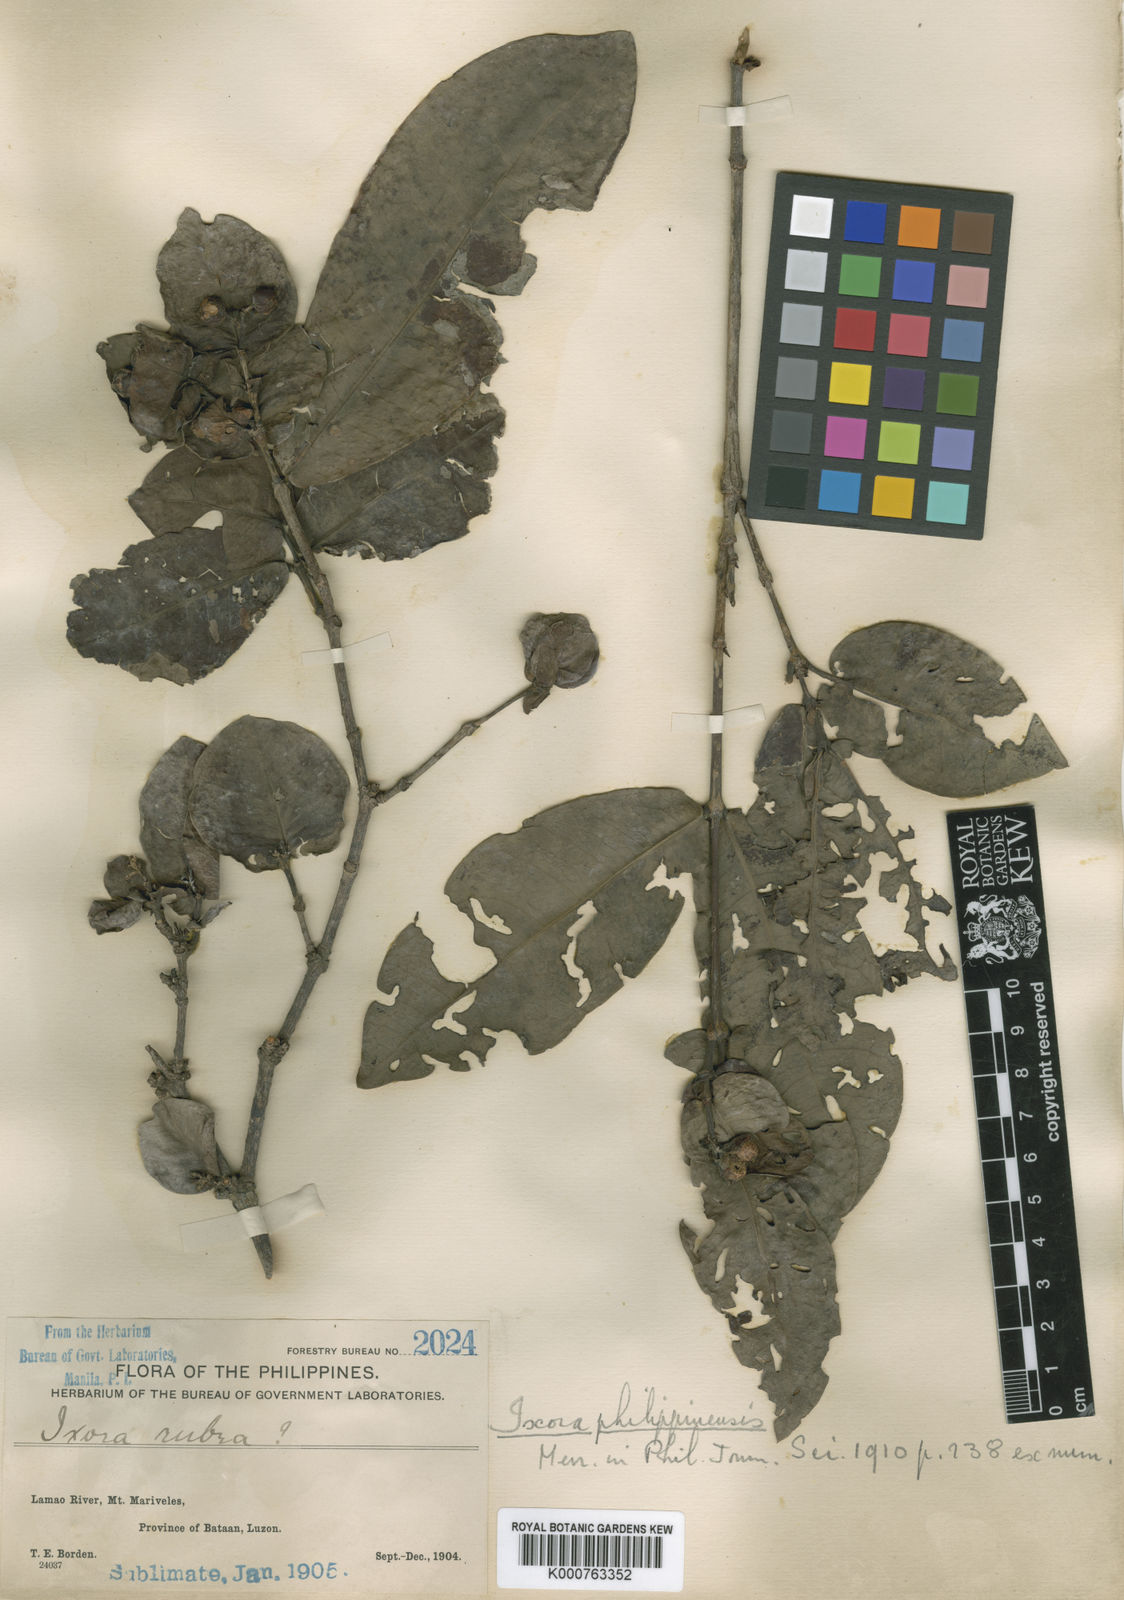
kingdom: Plantae
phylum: Tracheophyta
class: Magnoliopsida
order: Gentianales
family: Rubiaceae
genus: Ixora
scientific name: Ixora philippinensis
